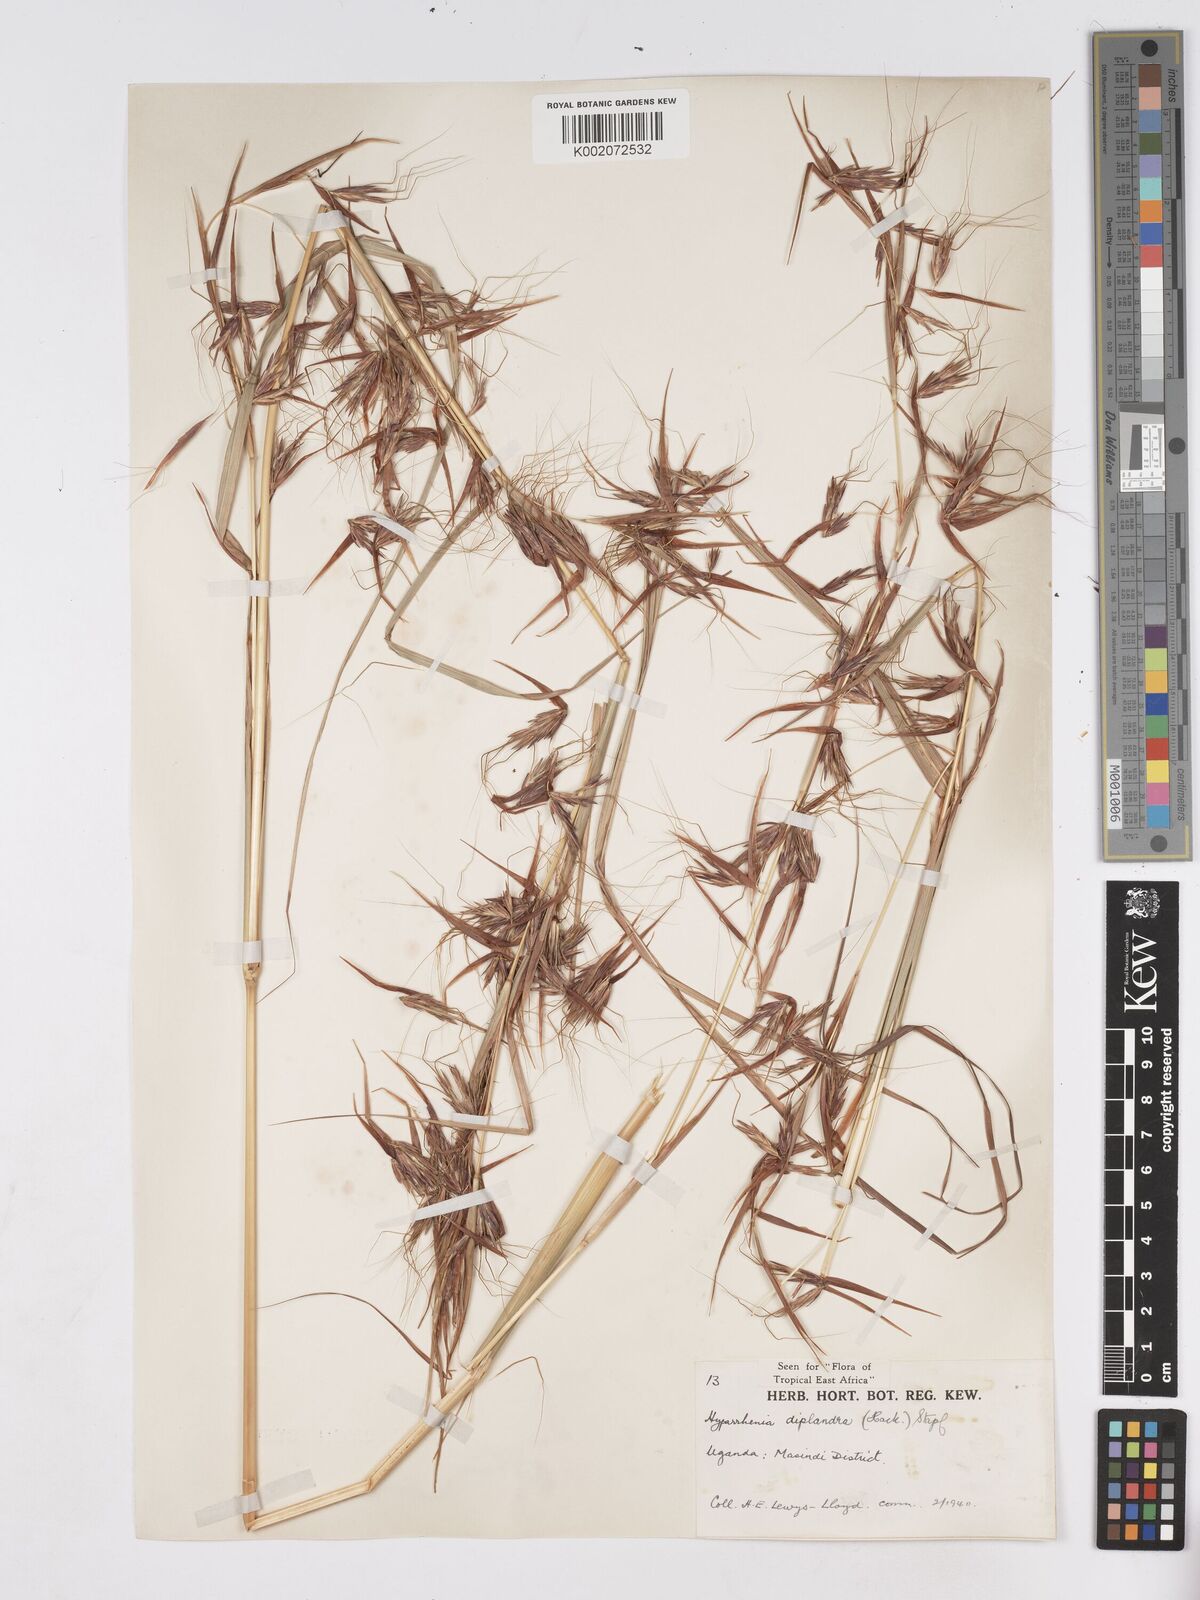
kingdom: Plantae
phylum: Tracheophyta
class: Liliopsida
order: Poales
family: Poaceae
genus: Hyparrhenia
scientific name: Hyparrhenia
